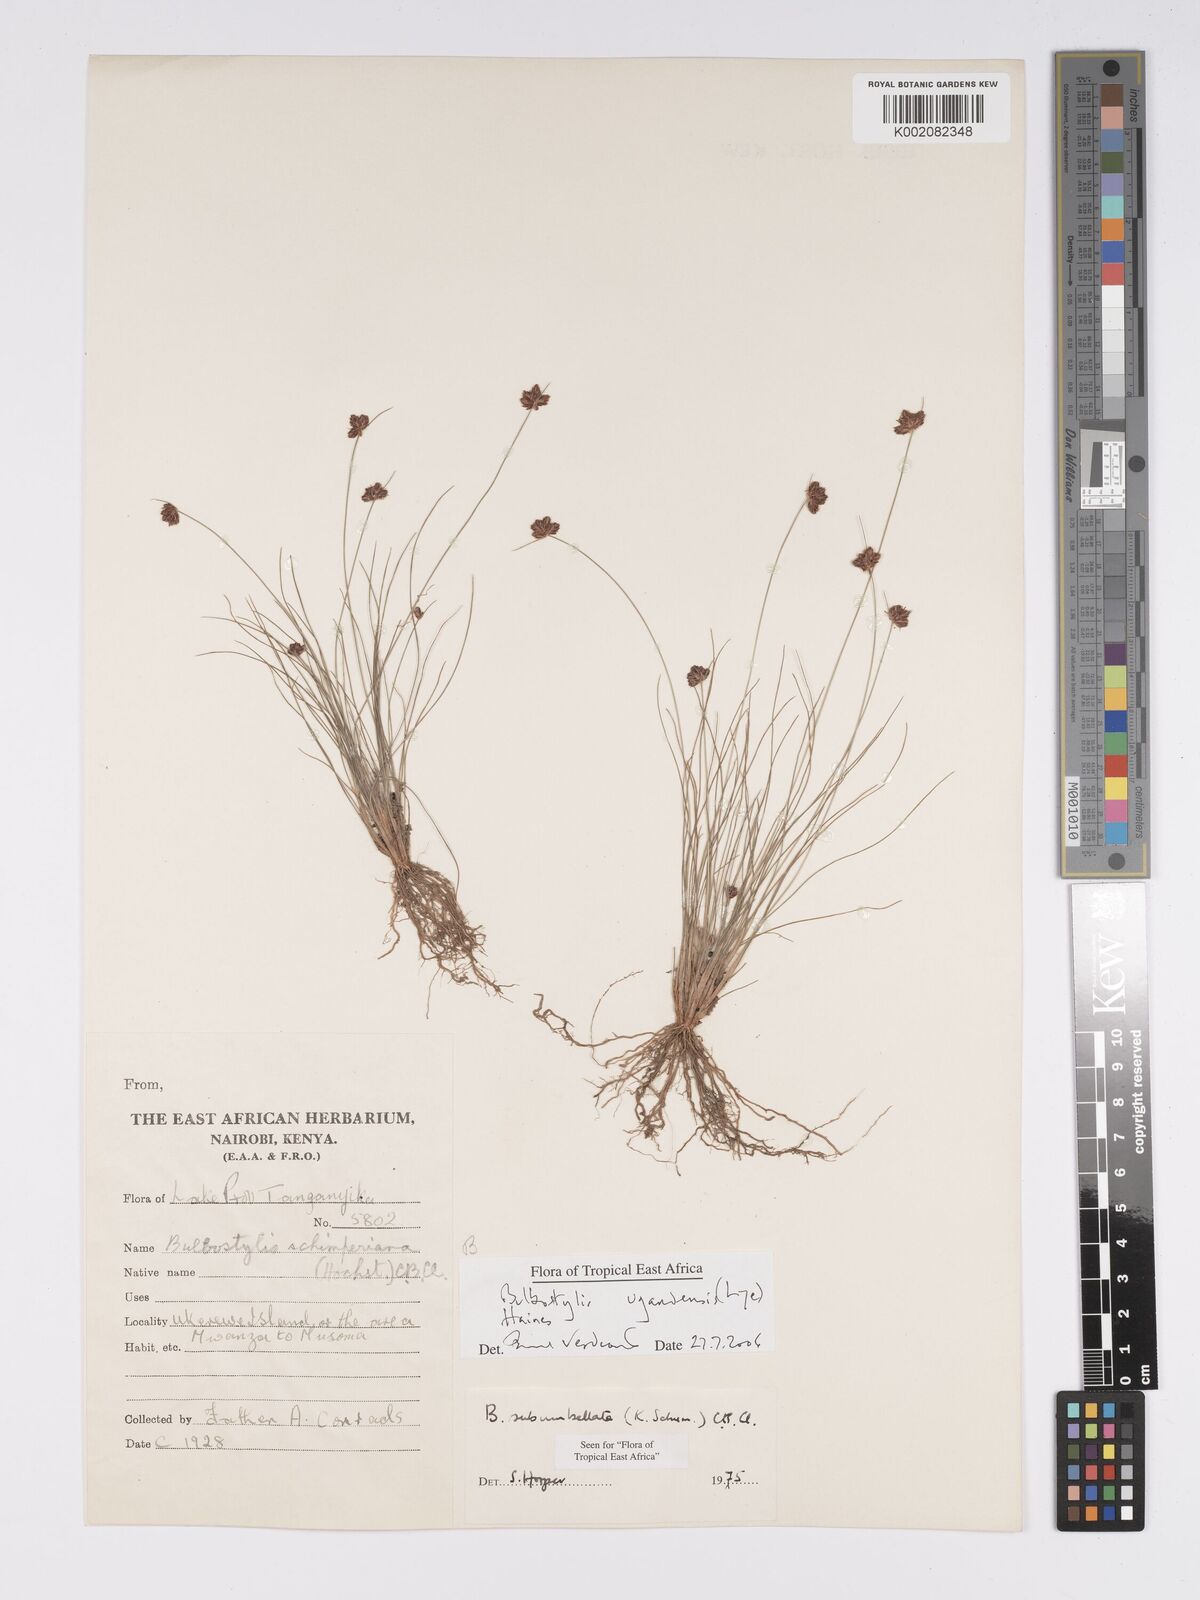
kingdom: Plantae
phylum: Tracheophyta
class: Liliopsida
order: Poales
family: Cyperaceae
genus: Bulbostylis
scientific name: Bulbostylis ugandensis
